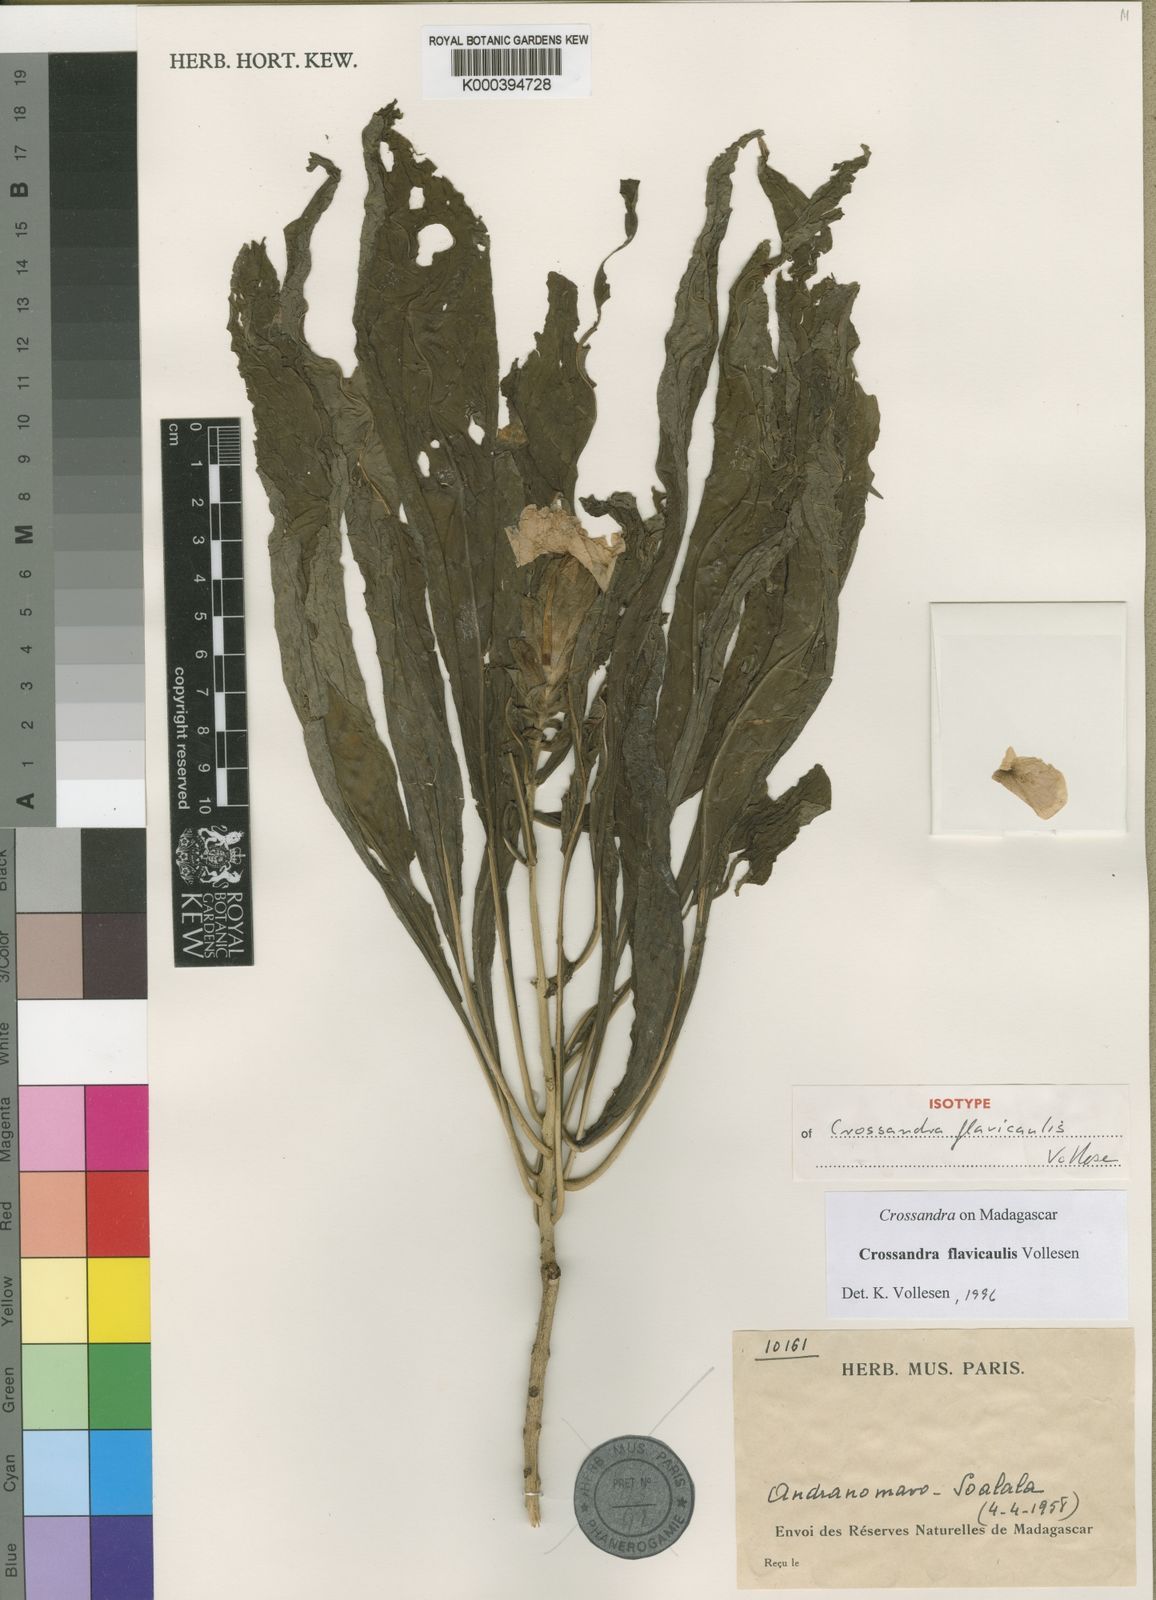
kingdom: Plantae
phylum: Tracheophyta
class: Magnoliopsida
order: Lamiales
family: Acanthaceae
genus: Crossandra
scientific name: Crossandra flavicaulis
